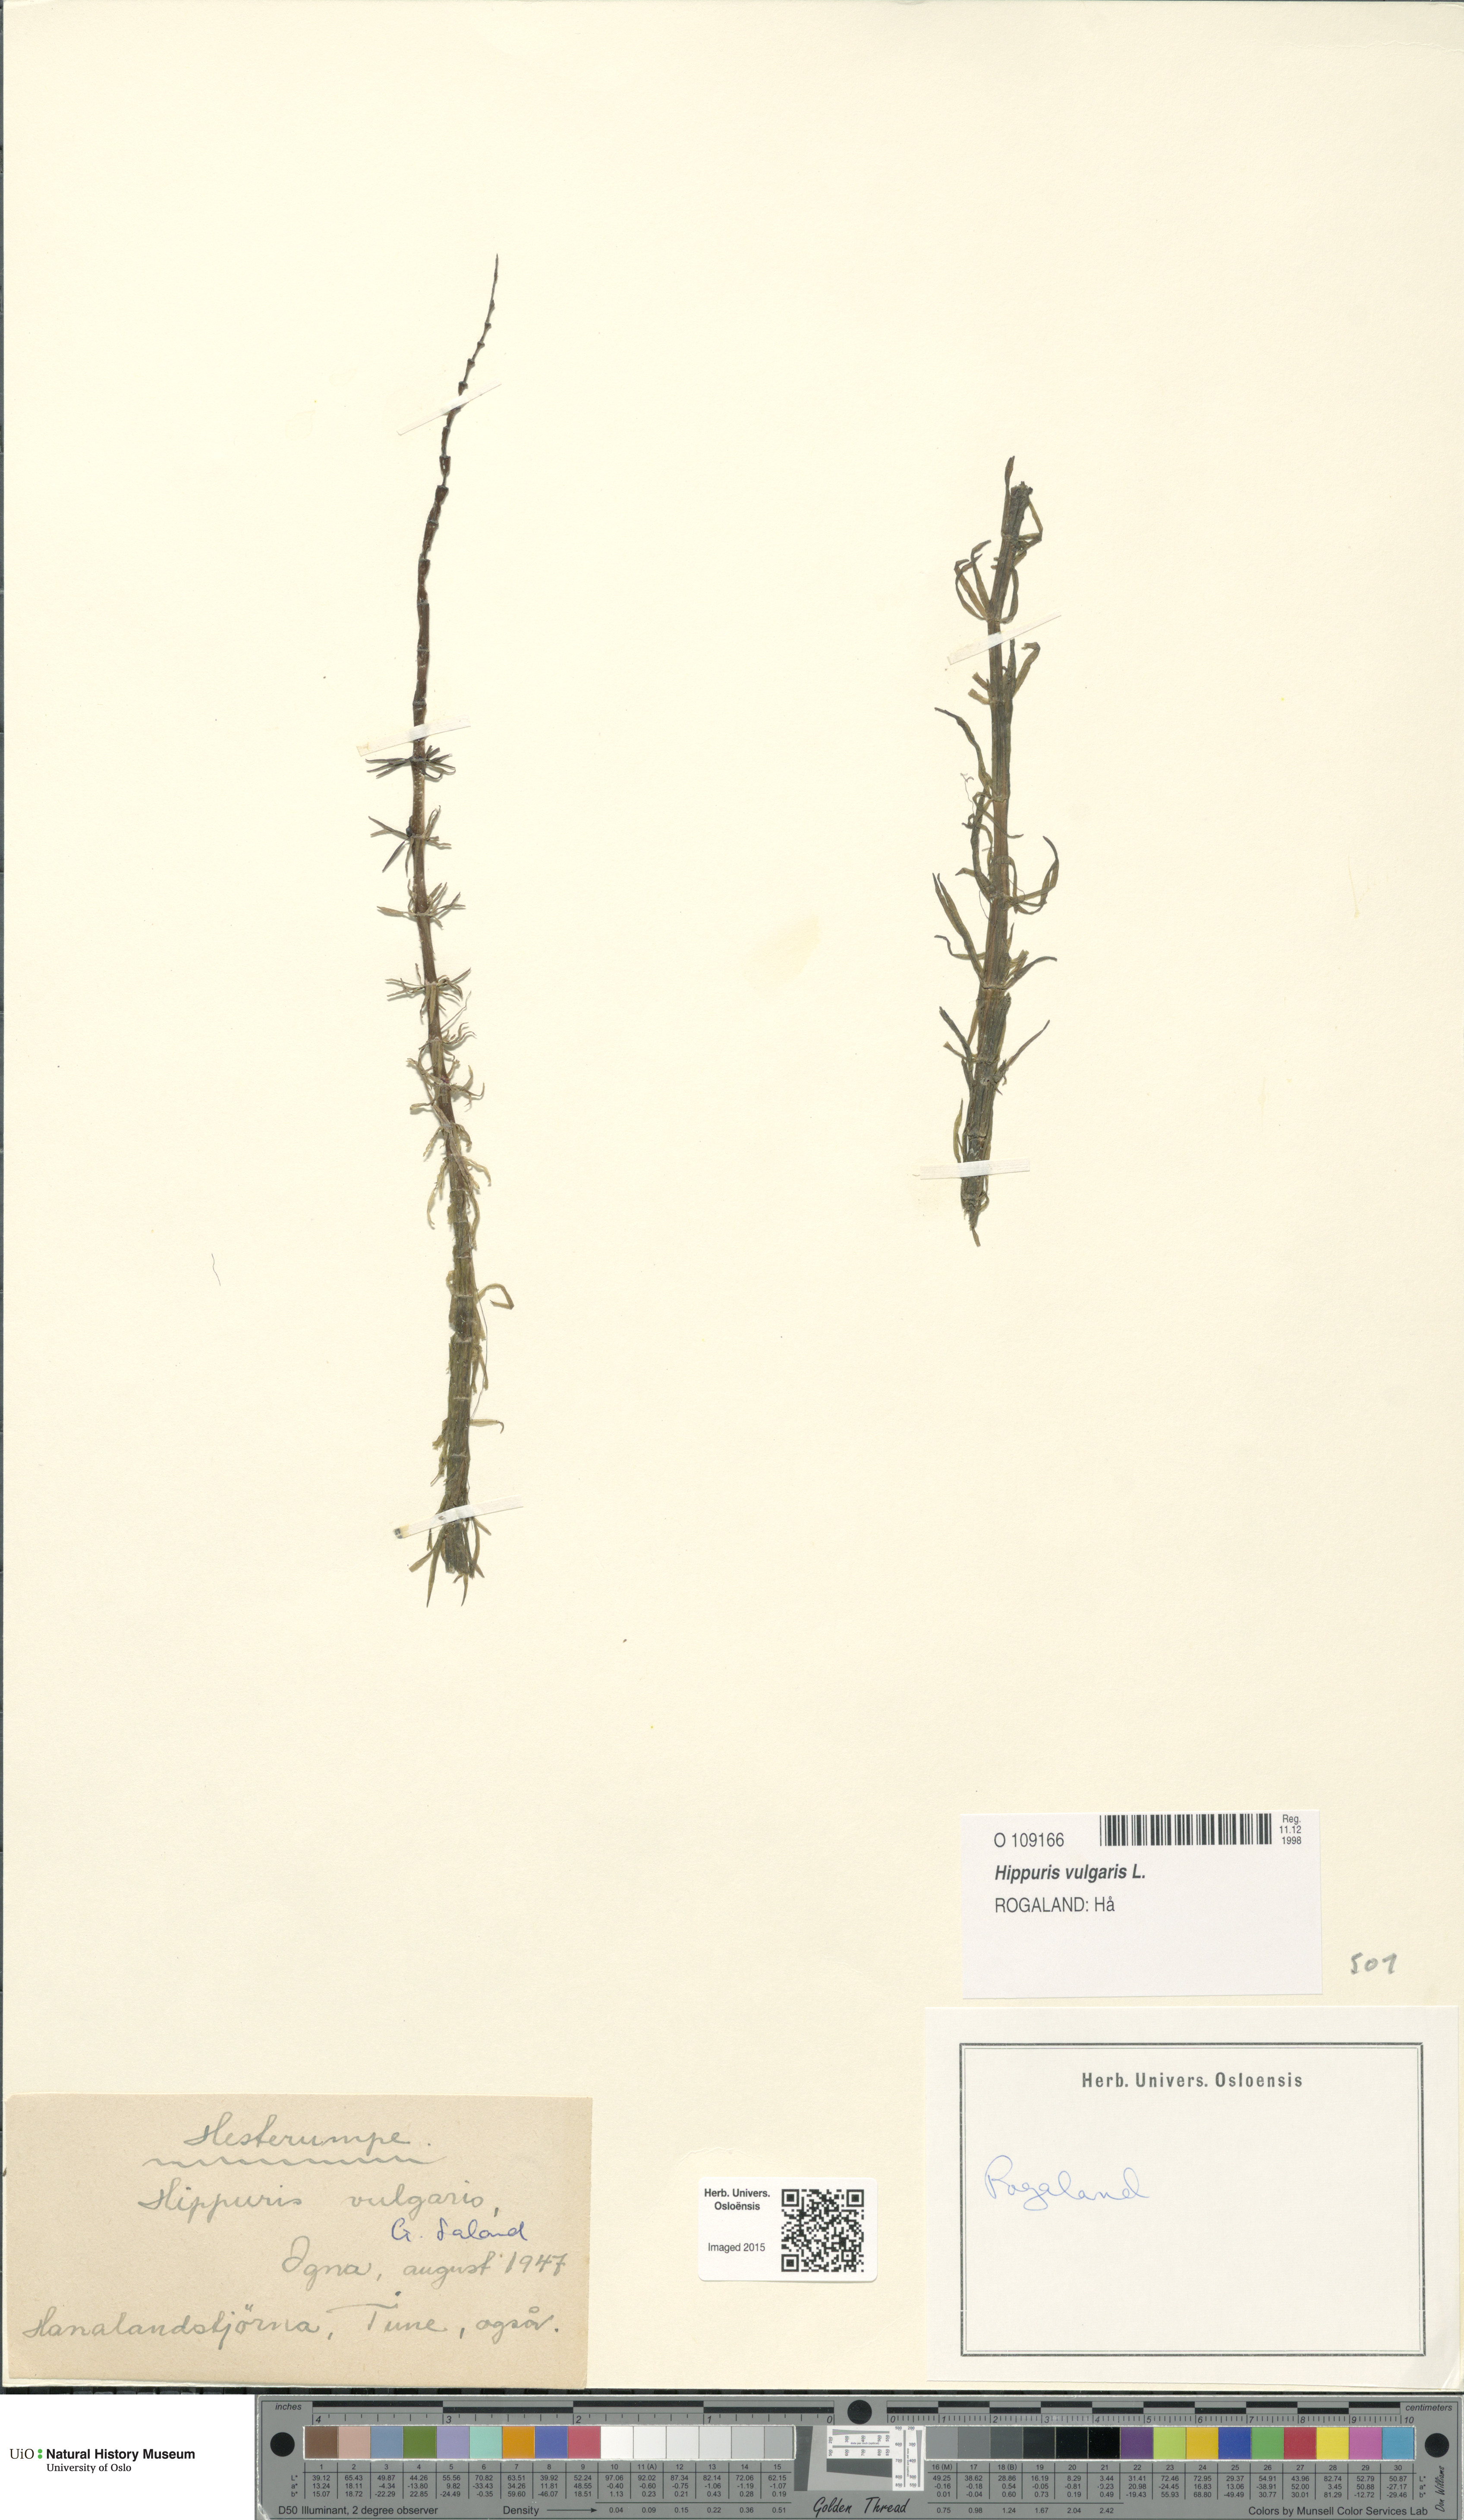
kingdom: Plantae
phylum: Tracheophyta
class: Magnoliopsida
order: Lamiales
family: Plantaginaceae
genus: Hippuris
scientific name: Hippuris vulgaris
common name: Mare's-tail
